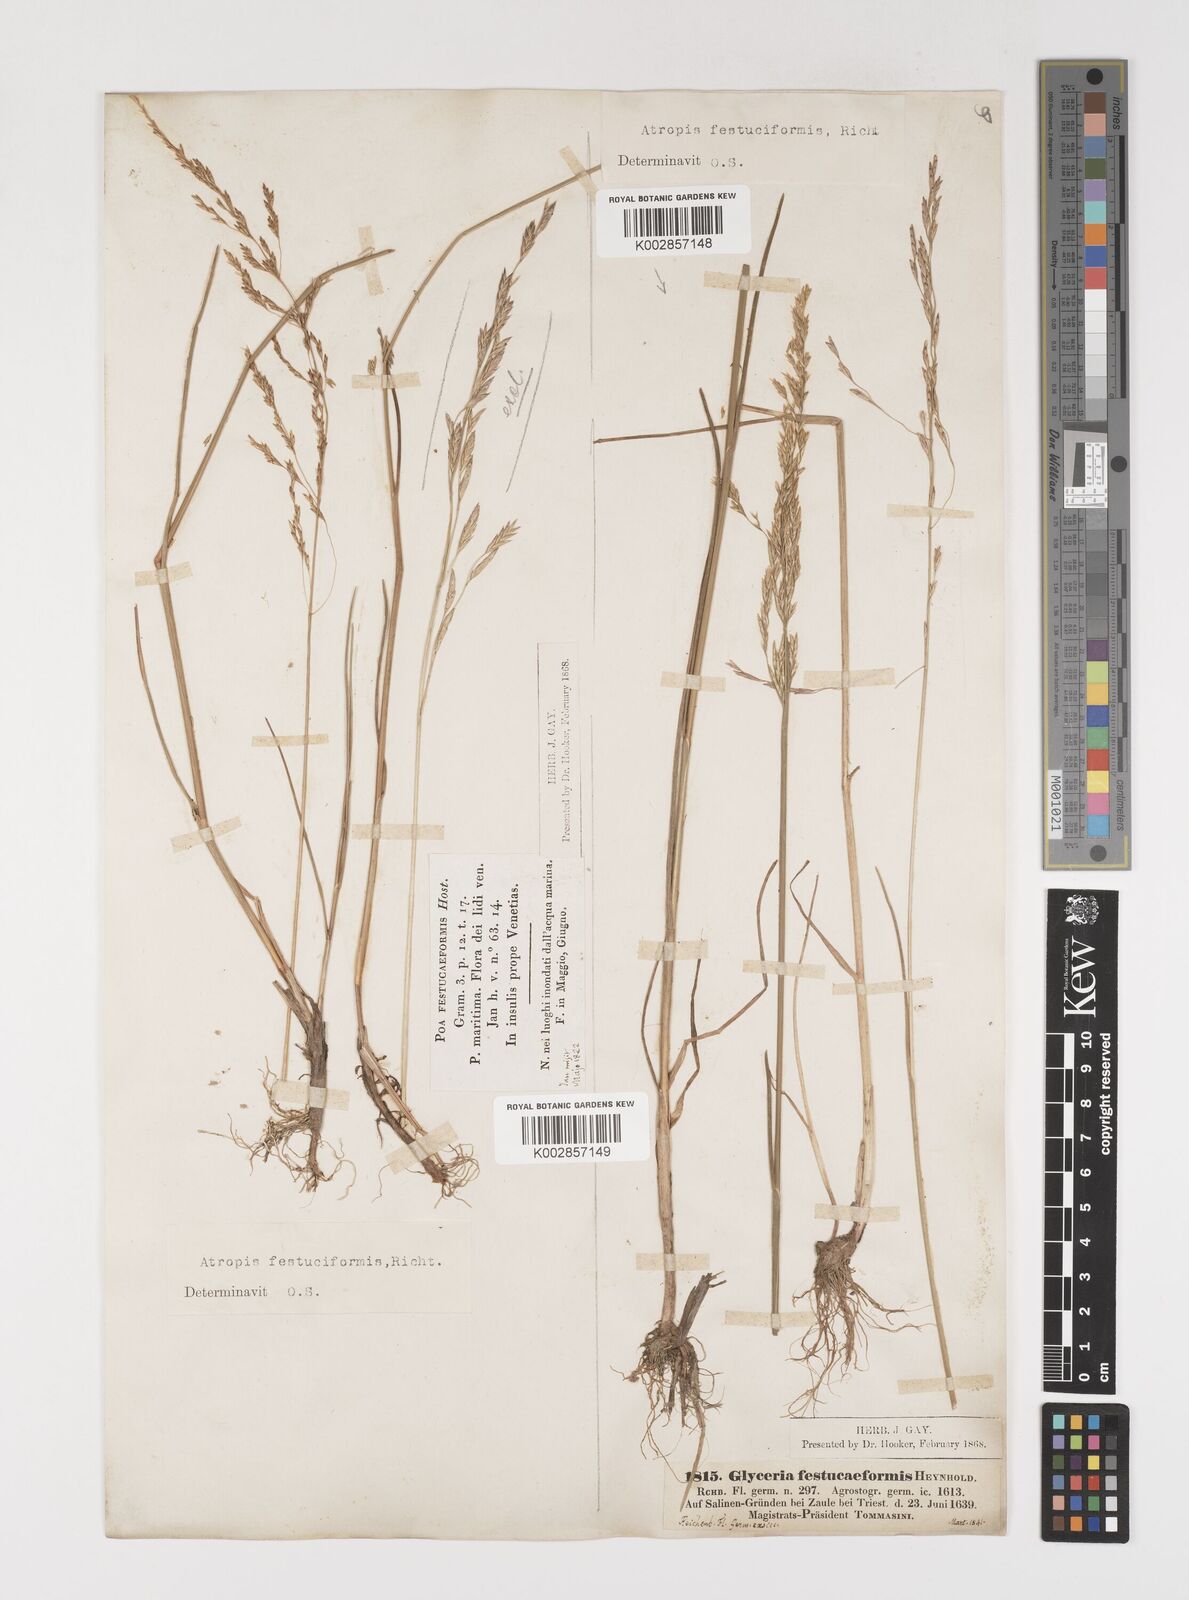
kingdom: Plantae
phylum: Tracheophyta
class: Liliopsida
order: Poales
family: Poaceae
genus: Puccinellia
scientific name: Puccinellia festuciformis
